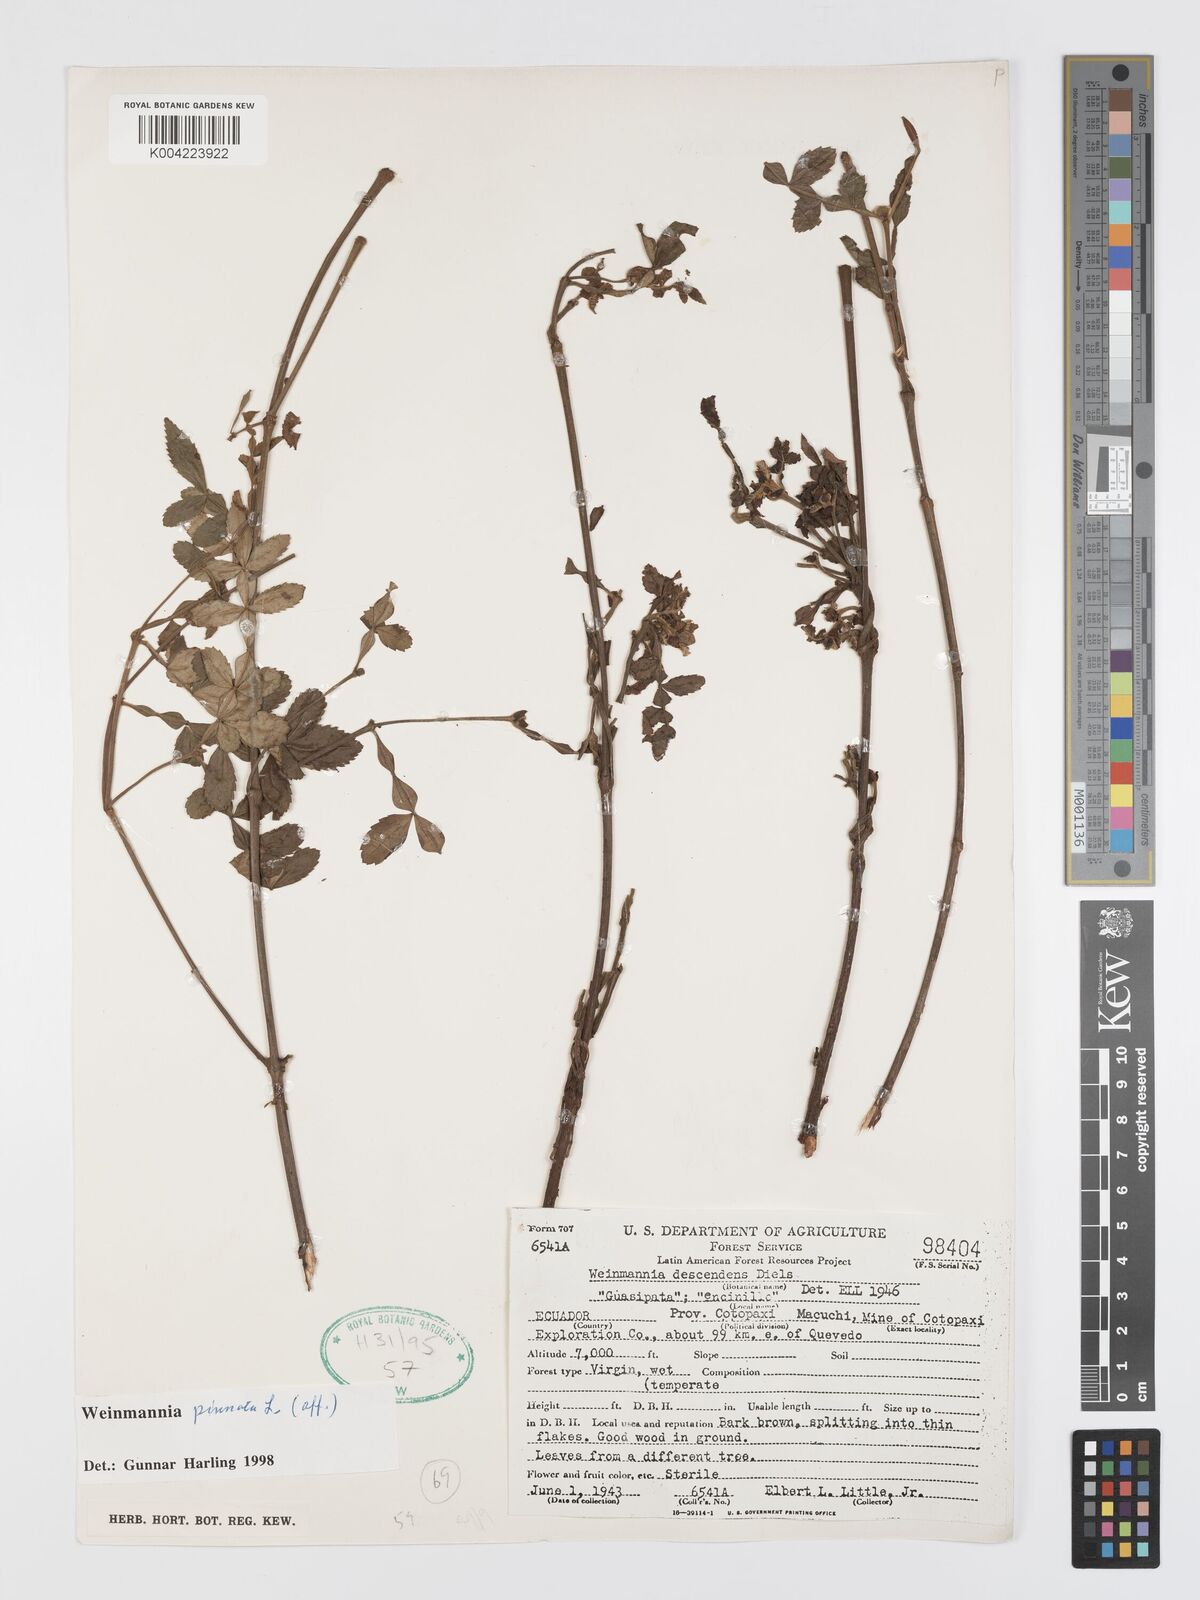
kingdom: Plantae
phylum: Tracheophyta
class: Magnoliopsida
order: Oxalidales
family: Cunoniaceae
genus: Weinmannia
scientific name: Weinmannia pinnata
